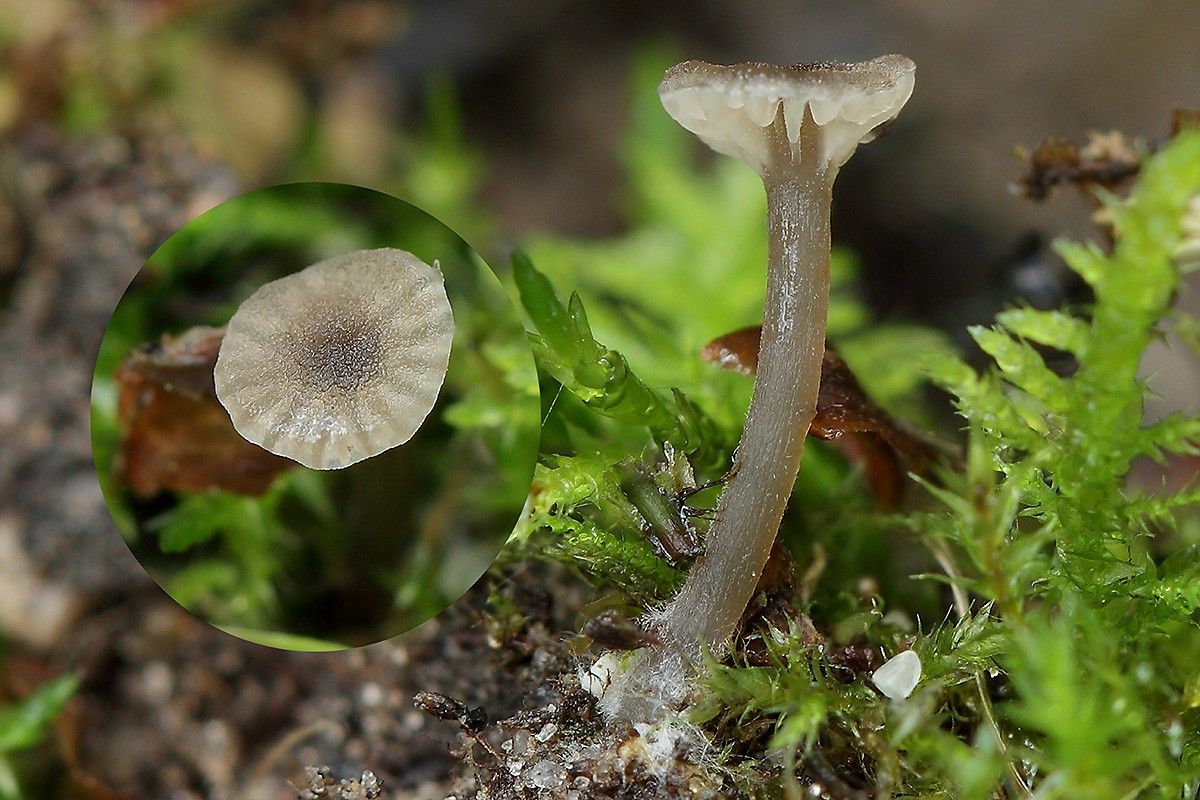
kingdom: Fungi
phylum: Basidiomycota
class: Agaricomycetes
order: Agaricales
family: Entolomataceae
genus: Entoloma
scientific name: Entoloma rhodocylix
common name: fjernbladet rødblad
